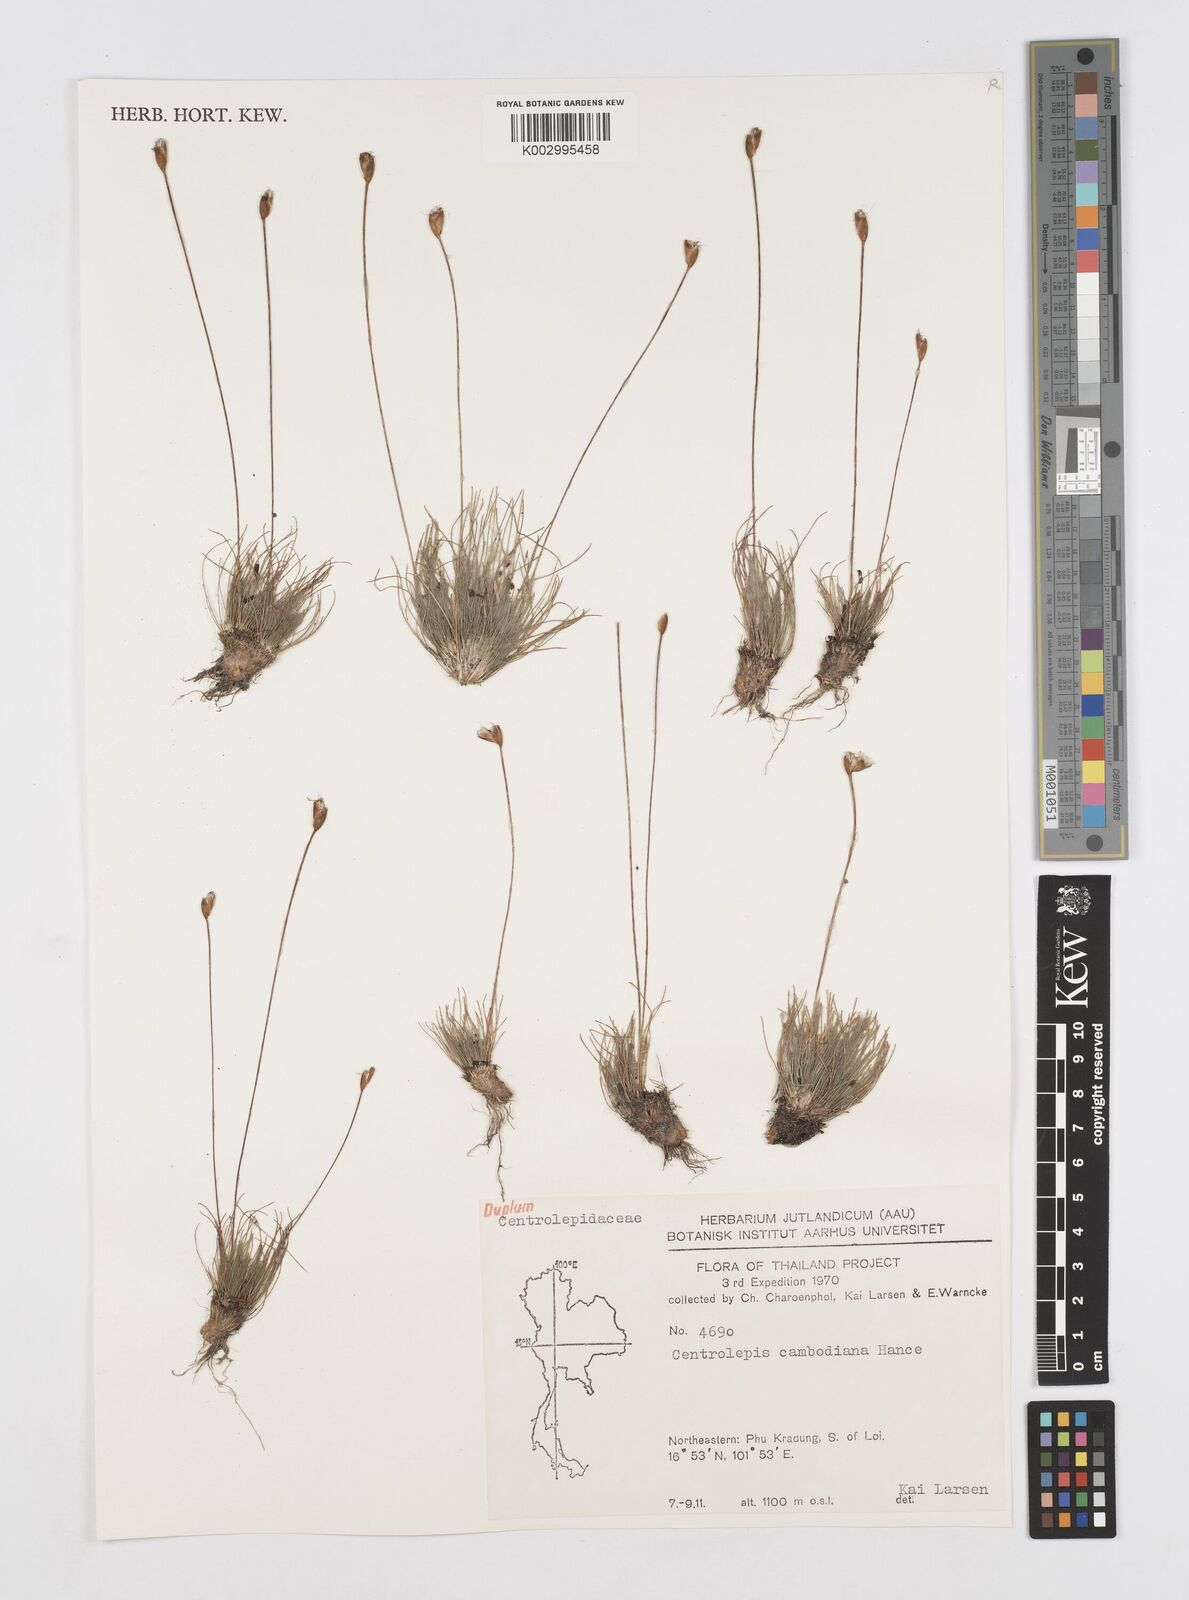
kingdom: Plantae
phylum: Tracheophyta
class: Liliopsida
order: Poales
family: Restionaceae
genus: Centrolepis
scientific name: Centrolepis cambodiana
